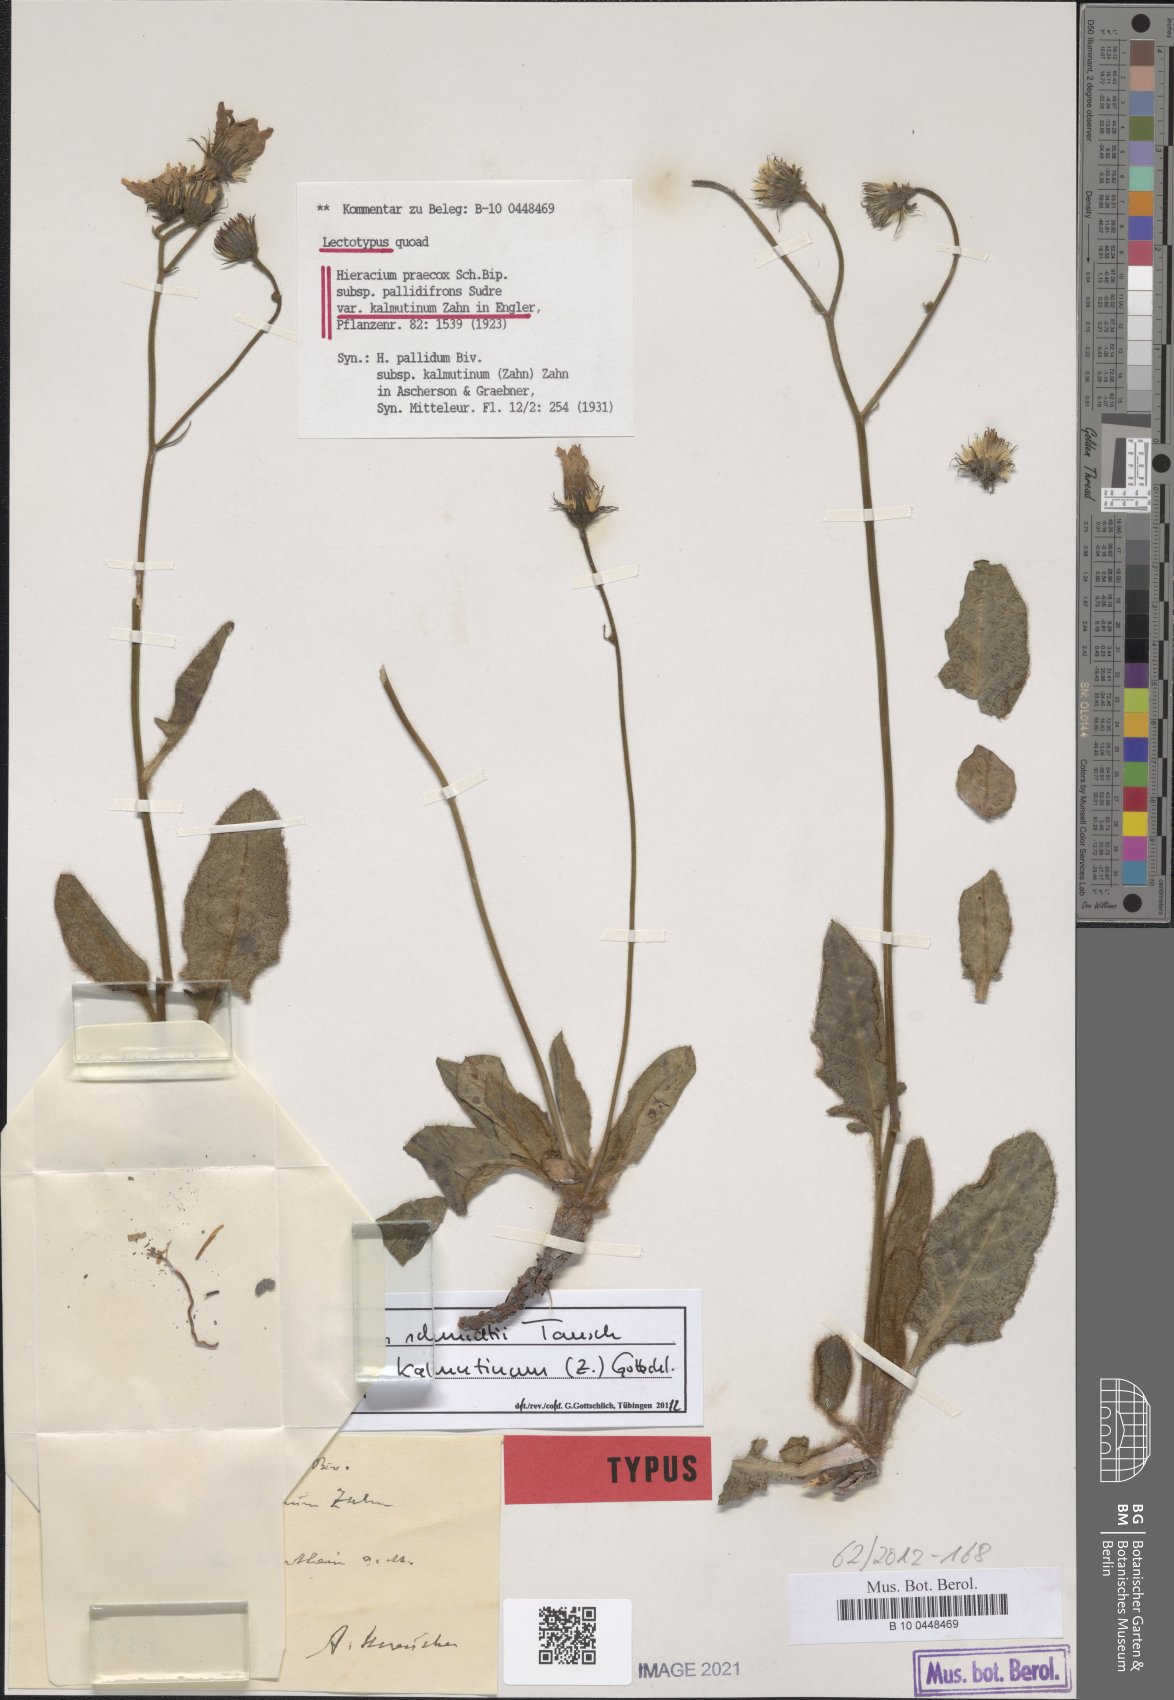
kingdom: Plantae
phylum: Tracheophyta
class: Magnoliopsida
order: Asterales
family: Asteraceae
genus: Hieracium
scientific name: Hieracium hypochoeroides
